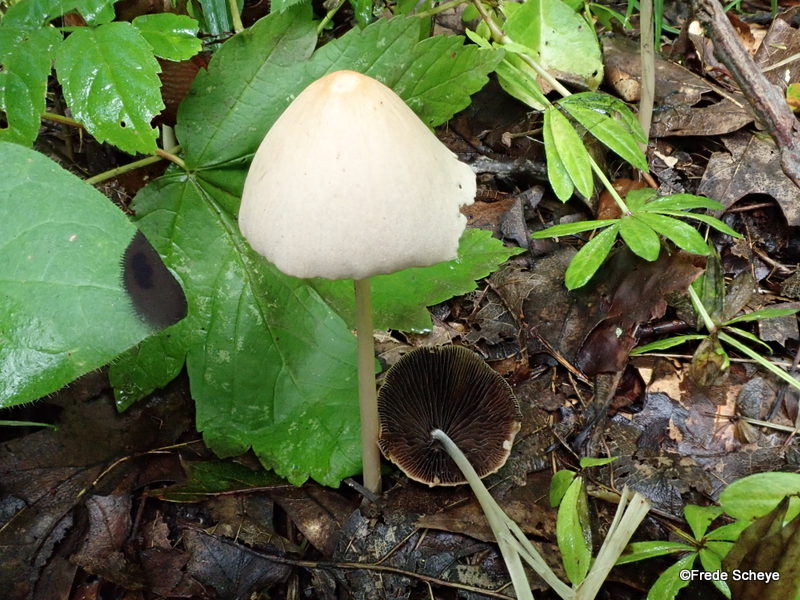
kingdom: Fungi
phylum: Basidiomycota
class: Agaricomycetes
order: Agaricales
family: Psathyrellaceae
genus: Parasola
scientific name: Parasola conopilea
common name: kegle-hjulhat
